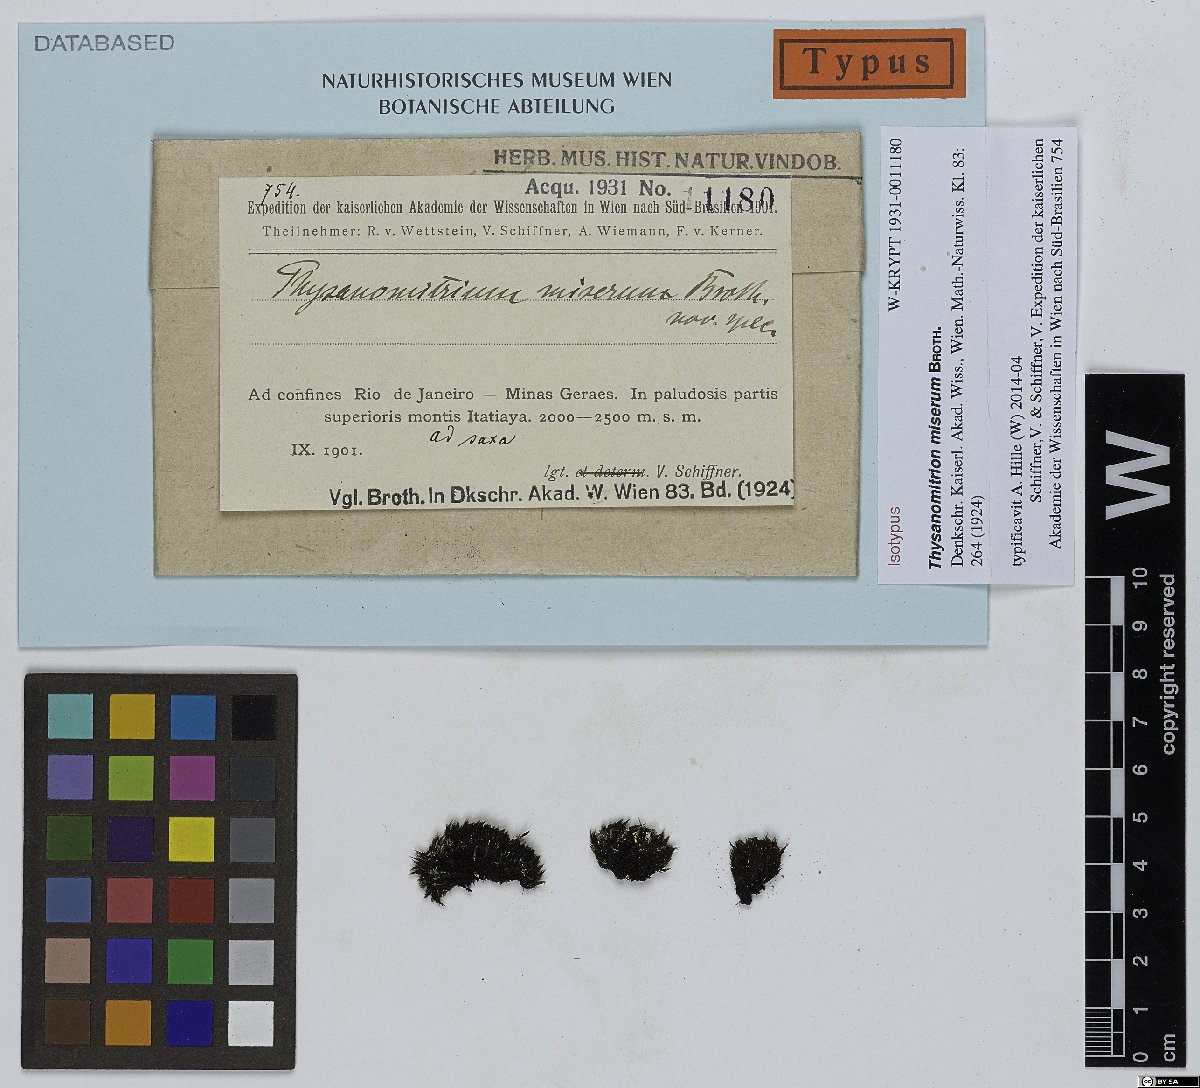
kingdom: Plantae
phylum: Bryophyta
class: Bryopsida
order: Dicranales
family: Leucobryaceae
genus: Campylopus
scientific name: Campylopus richardii
